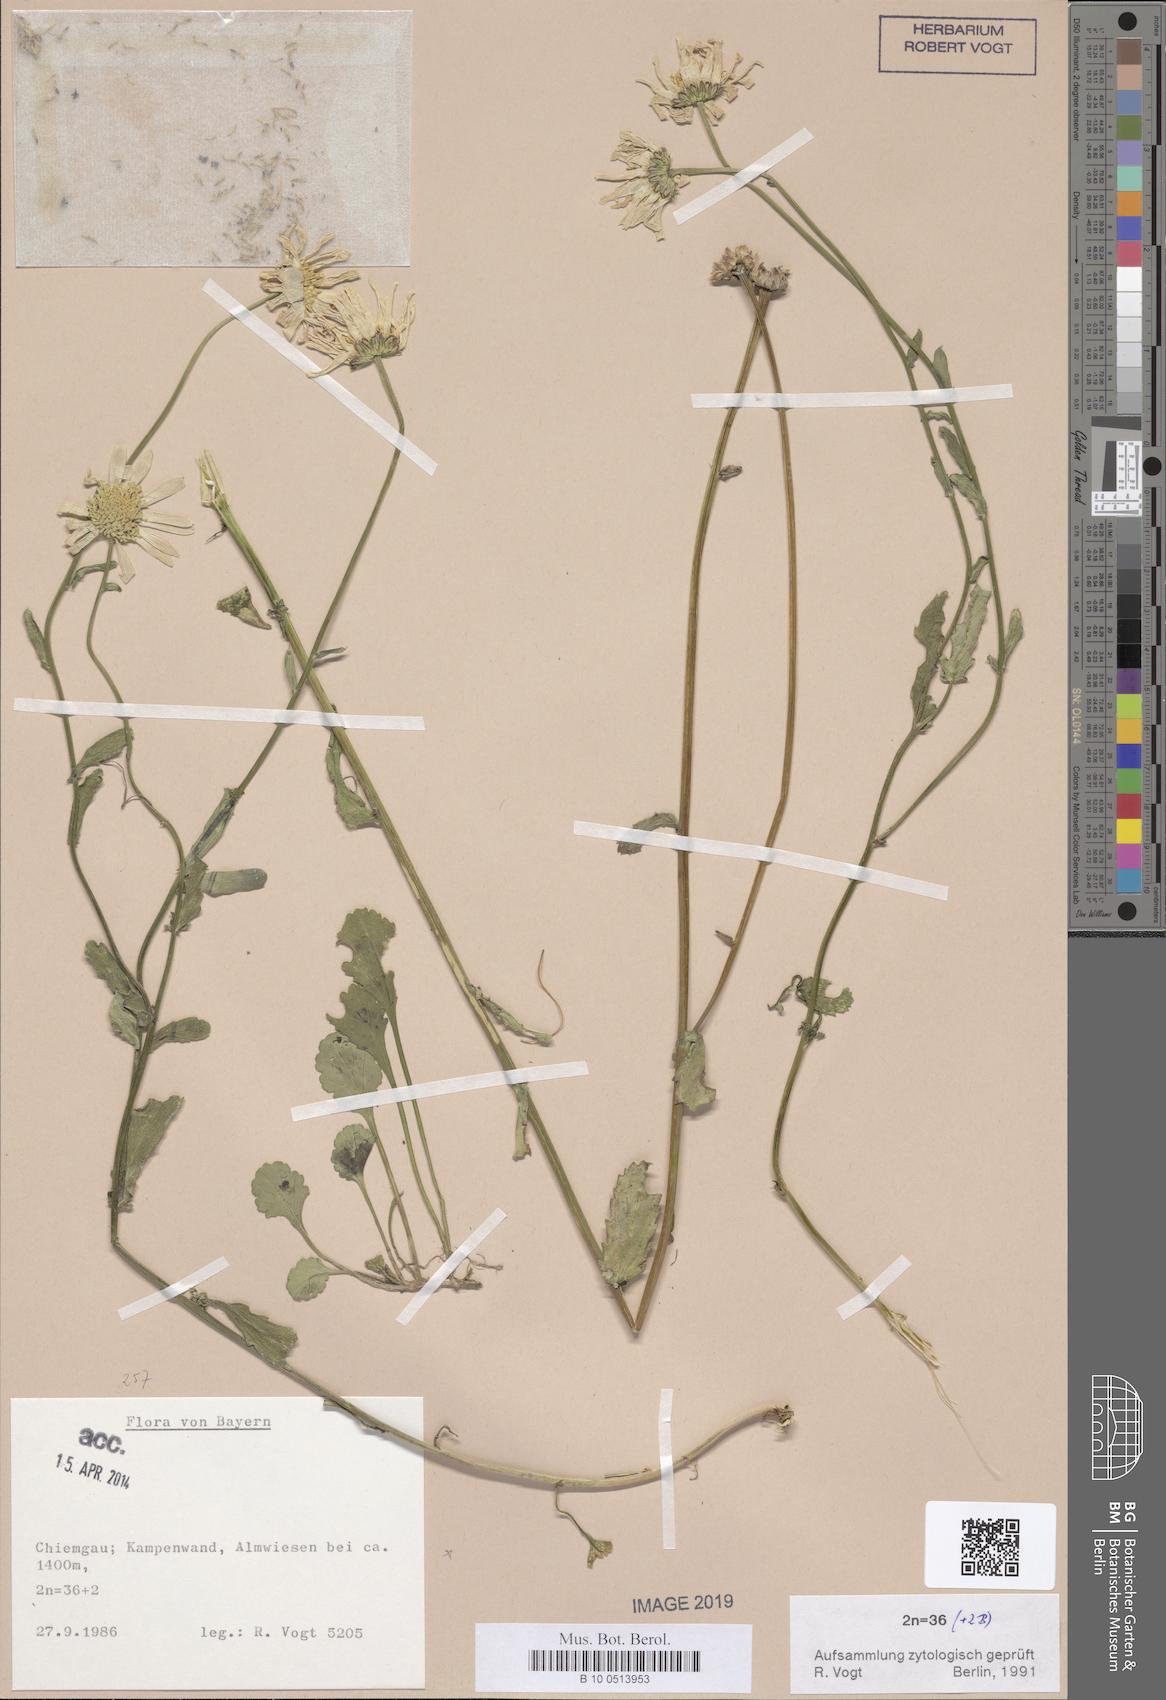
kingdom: Plantae
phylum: Tracheophyta
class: Magnoliopsida
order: Asterales
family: Asteraceae
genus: Leucanthemum
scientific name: Leucanthemum ircutianum
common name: Daisy
